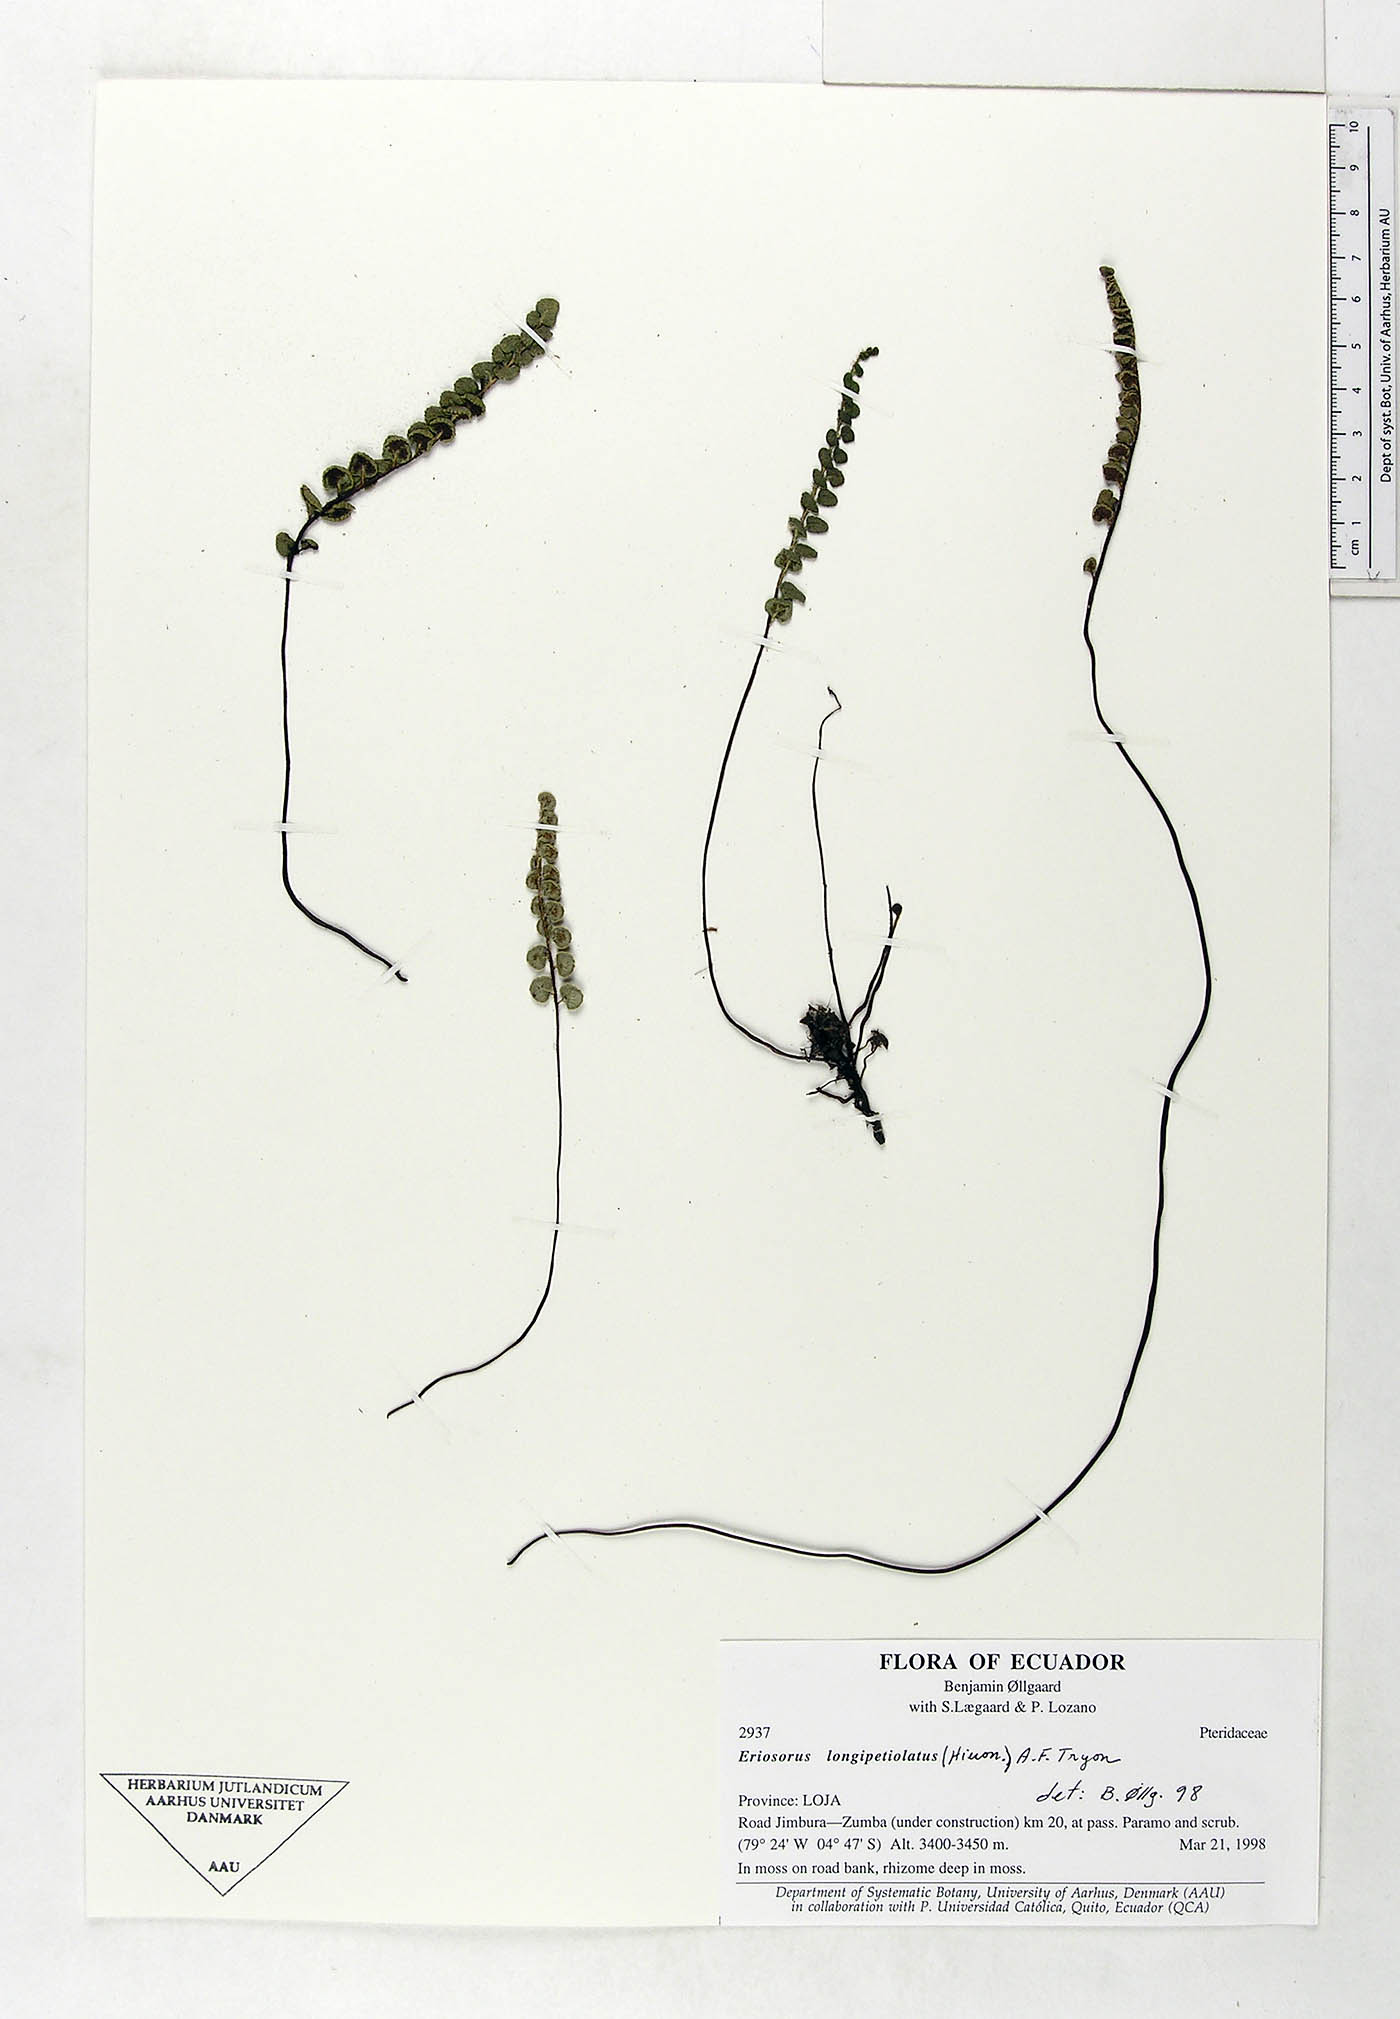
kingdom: Plantae
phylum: Tracheophyta
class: Polypodiopsida
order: Polypodiales
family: Pteridaceae
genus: Jamesonia
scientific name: Jamesonia longipetiolata
